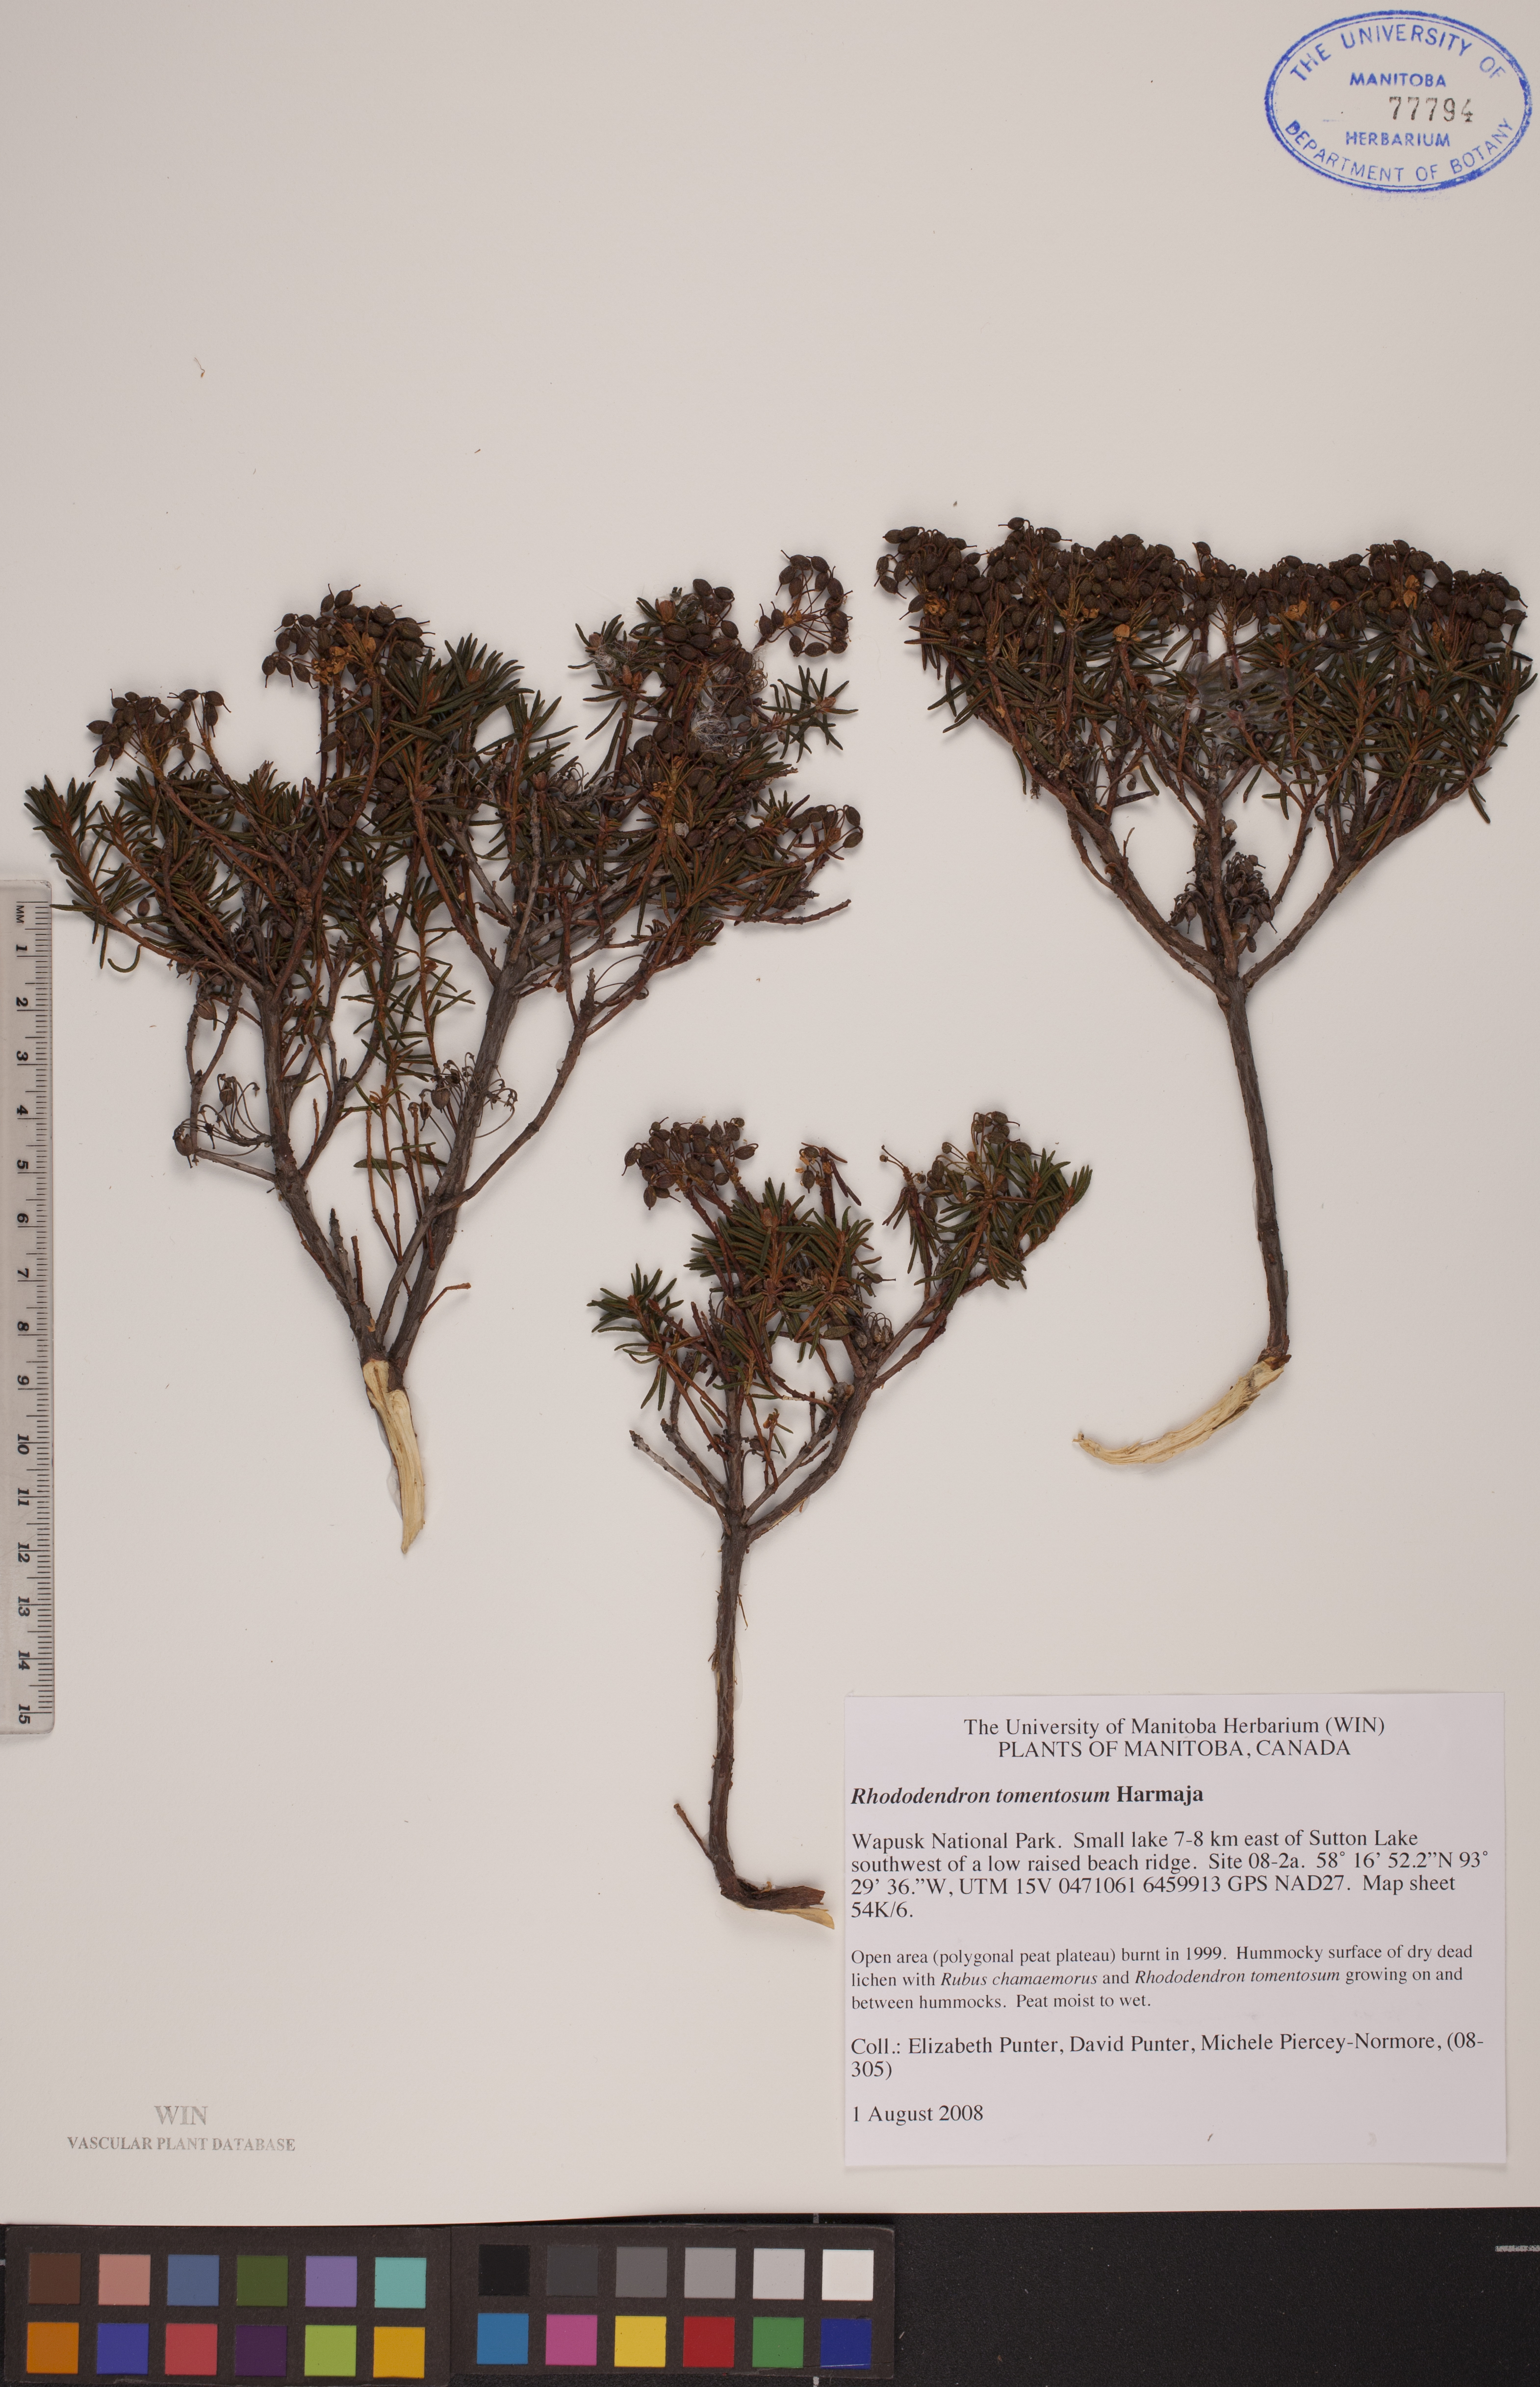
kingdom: Plantae
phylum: Tracheophyta
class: Magnoliopsida
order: Ericales
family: Ericaceae
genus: Rhododendron
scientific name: Rhododendron tomentosum
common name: Marsh labrador tea
